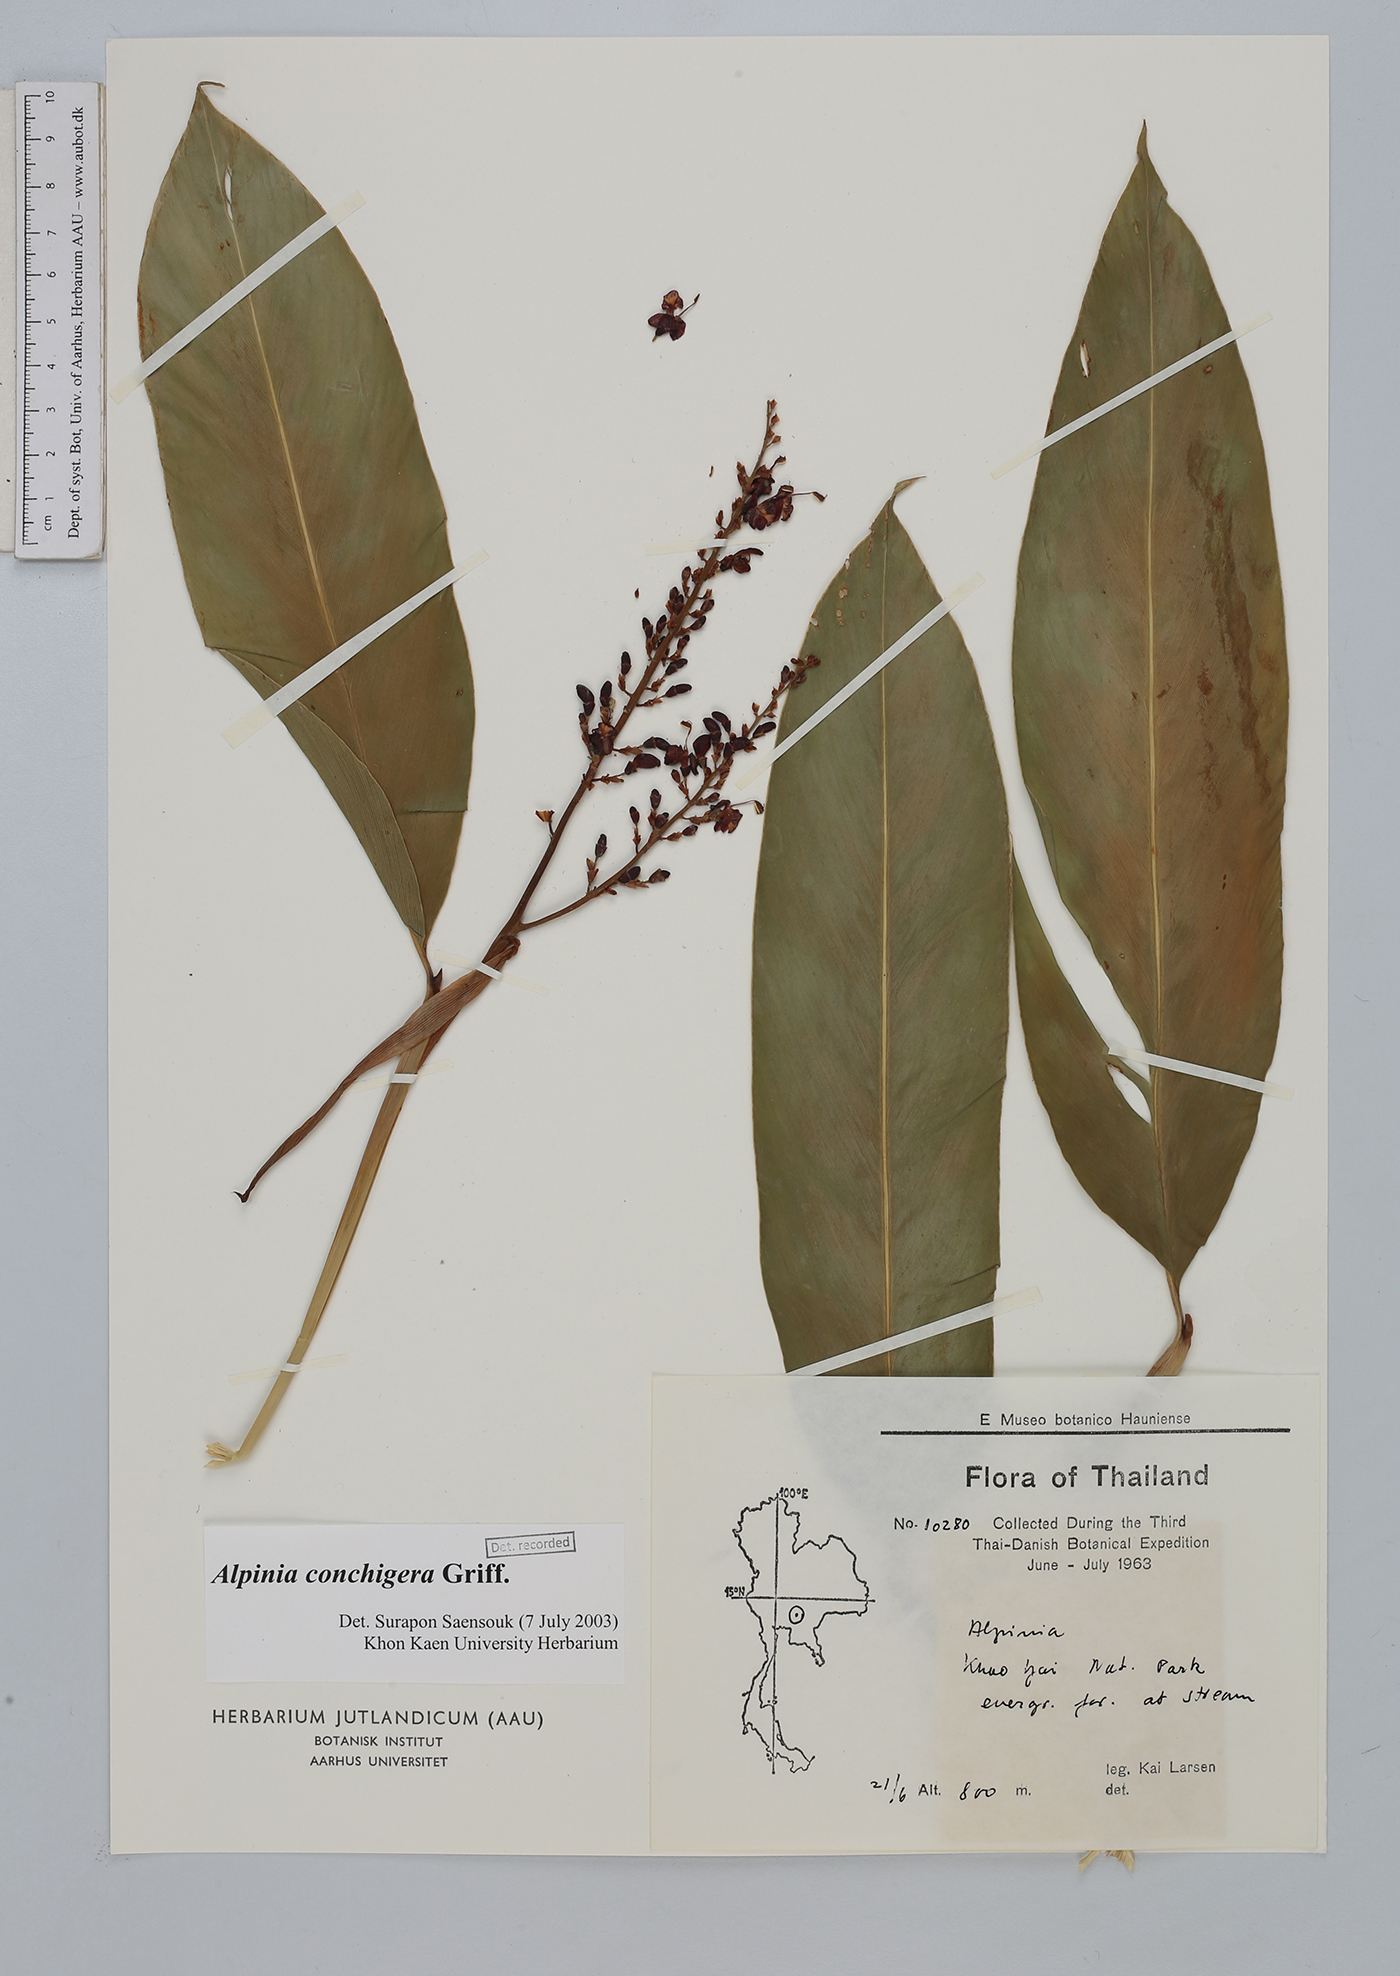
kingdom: Plantae
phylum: Tracheophyta
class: Liliopsida
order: Zingiberales
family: Zingiberaceae
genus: Alpinia
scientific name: Alpinia conchigera
